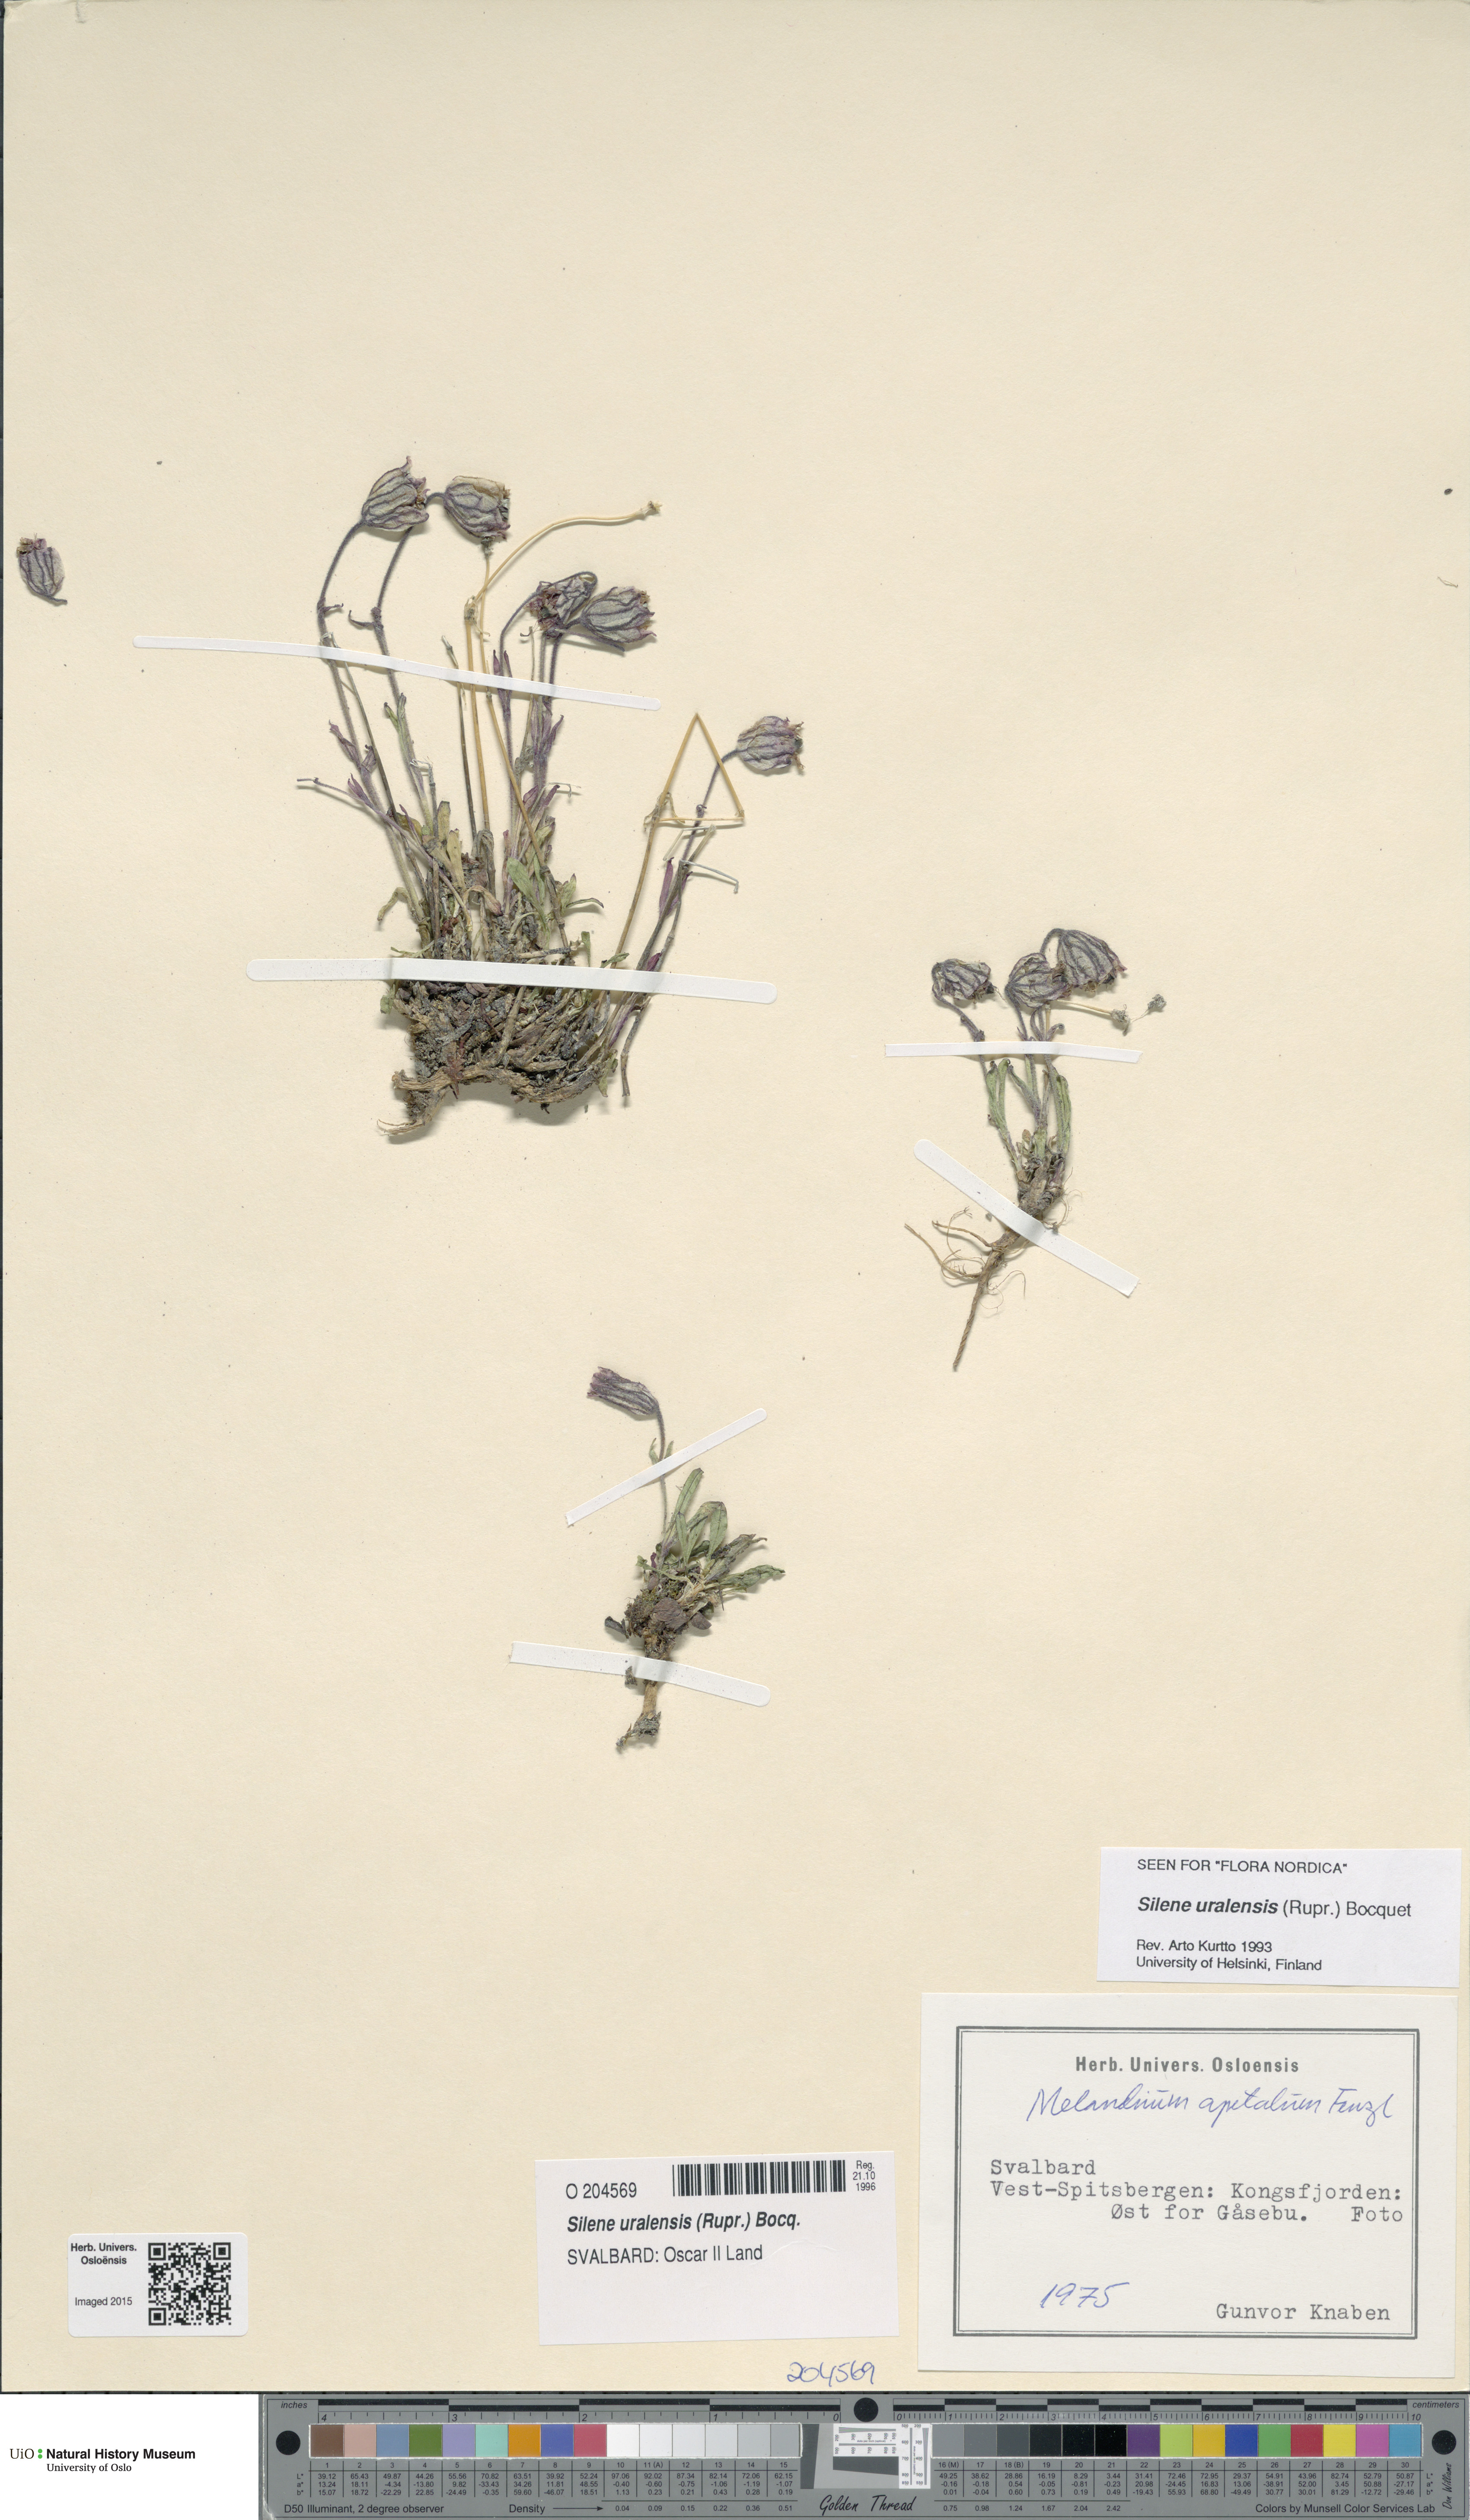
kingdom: Plantae
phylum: Tracheophyta
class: Magnoliopsida
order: Caryophyllales
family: Caryophyllaceae
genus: Silene
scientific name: Silene uralensis
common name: Nodding campion
